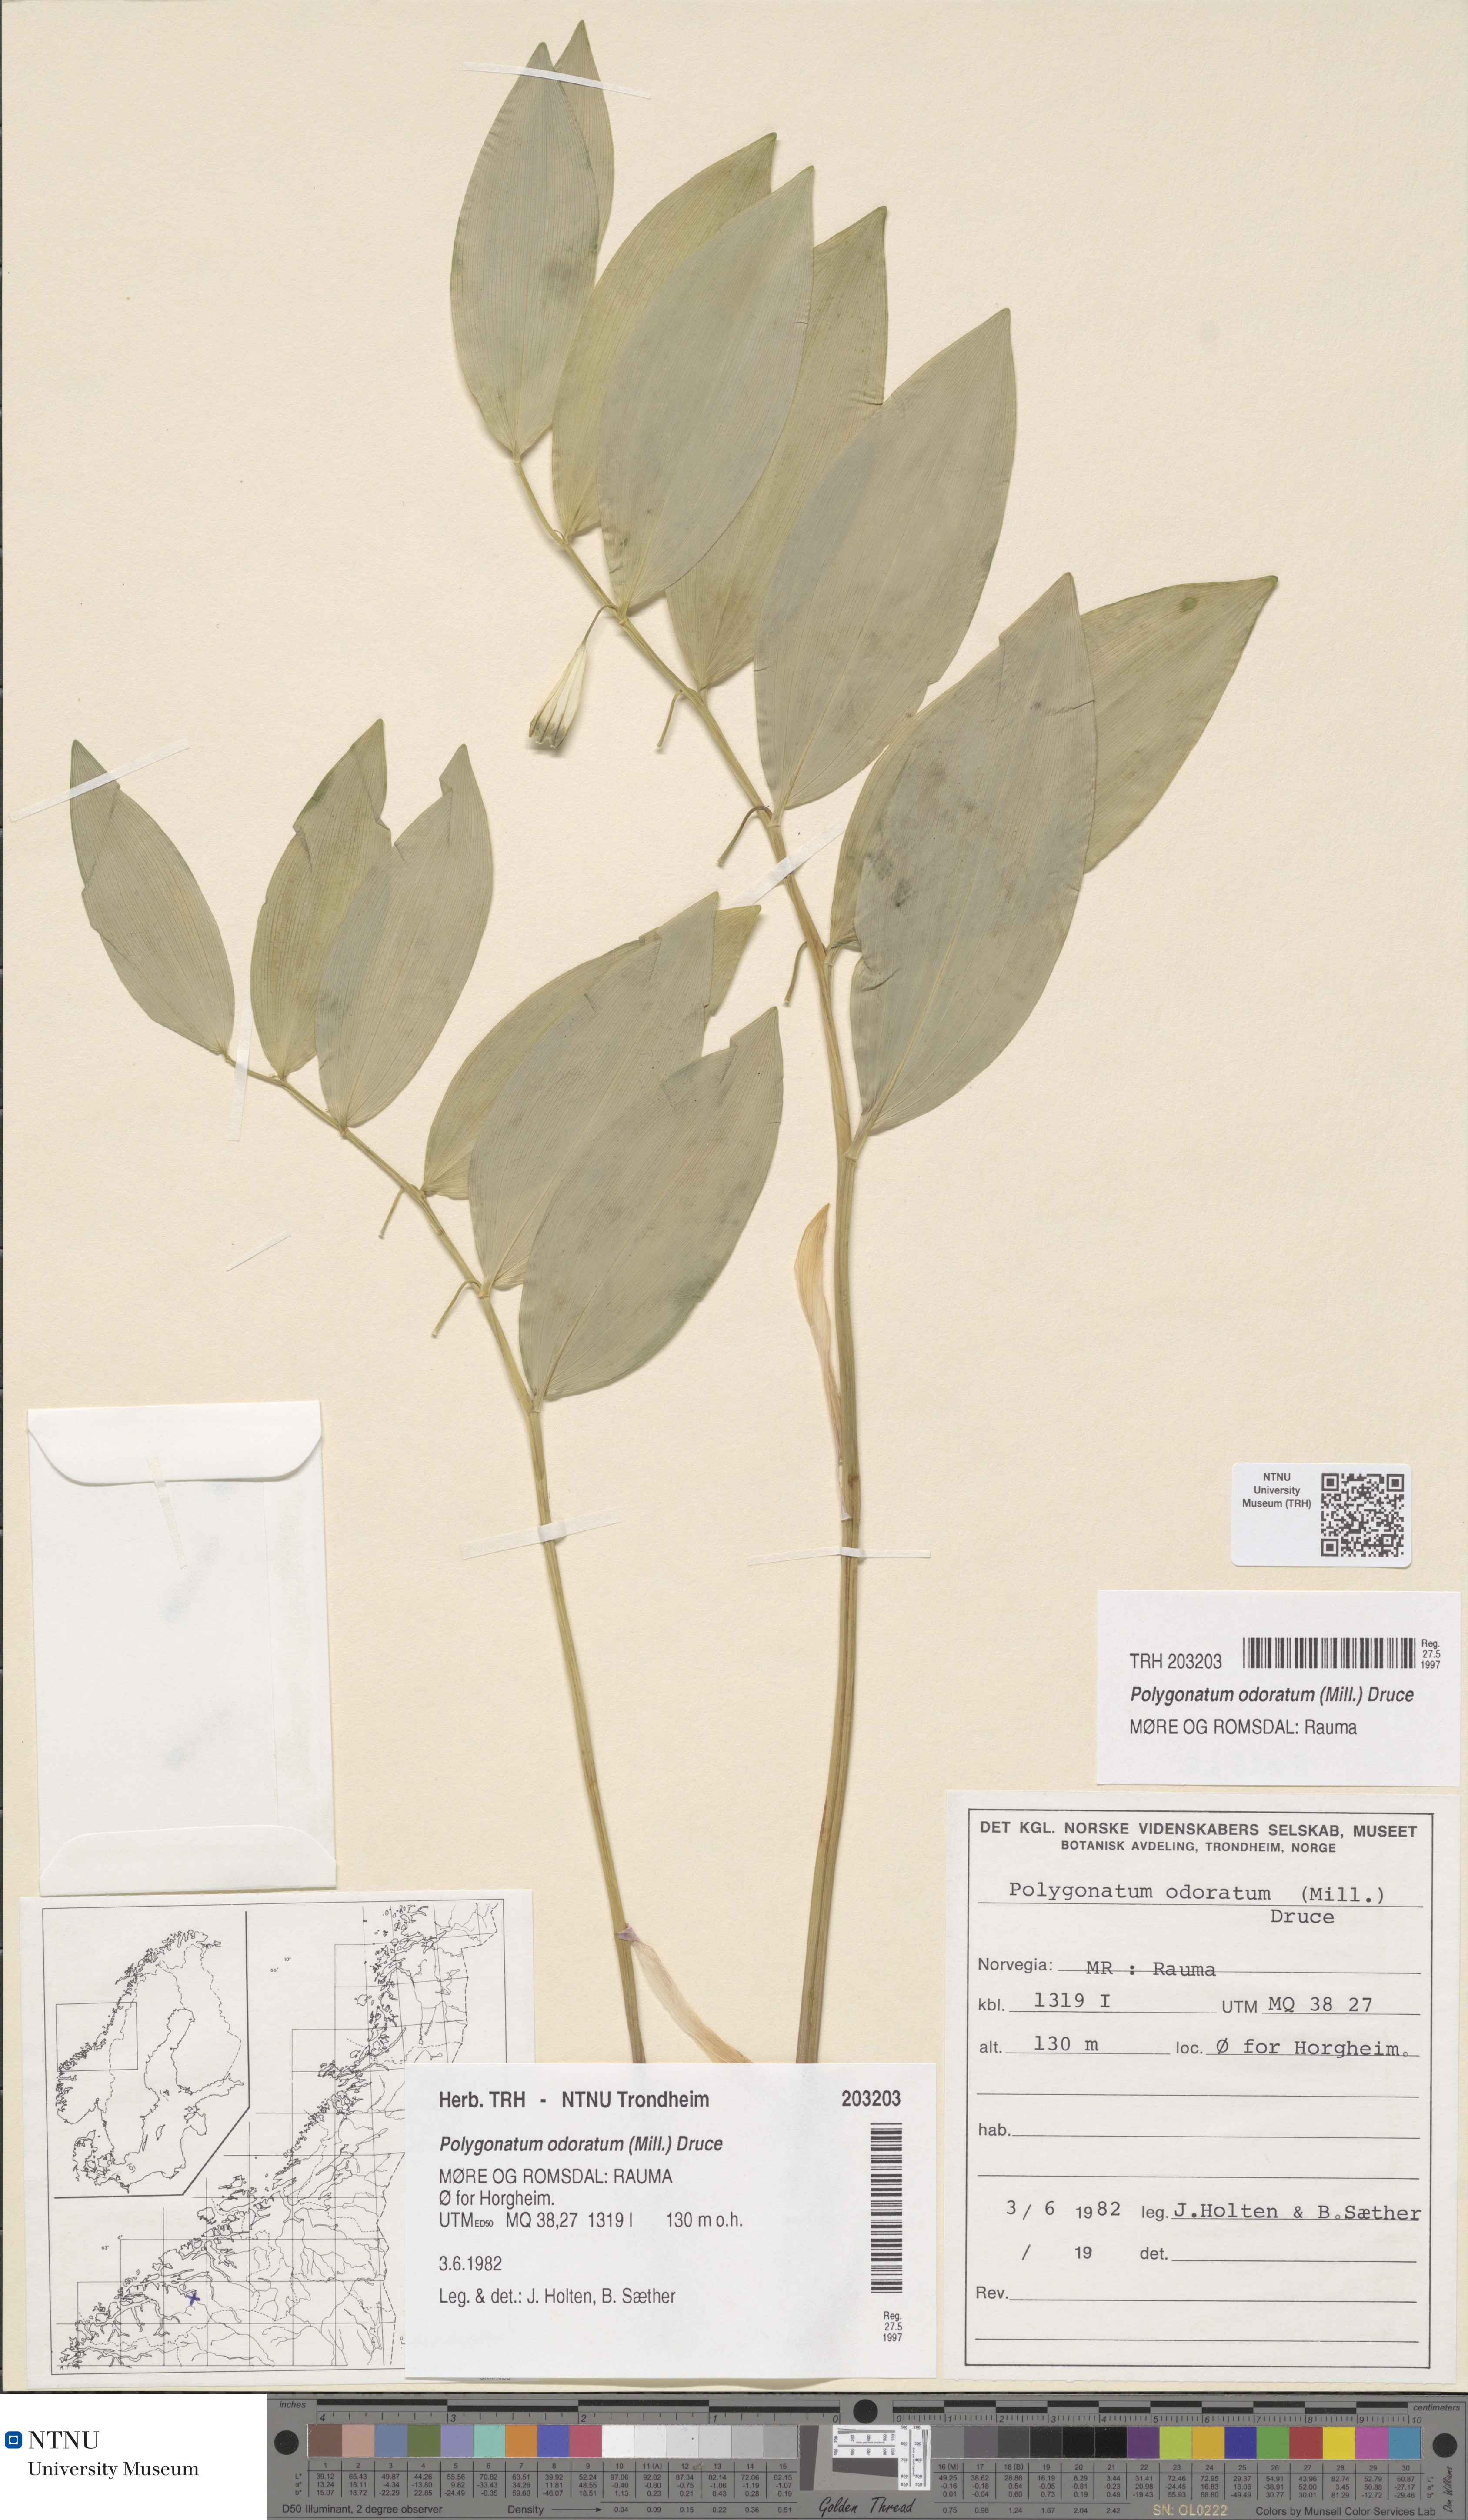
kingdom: Plantae
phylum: Tracheophyta
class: Liliopsida
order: Asparagales
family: Asparagaceae
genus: Polygonatum
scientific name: Polygonatum odoratum
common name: Angular solomon's-seal
